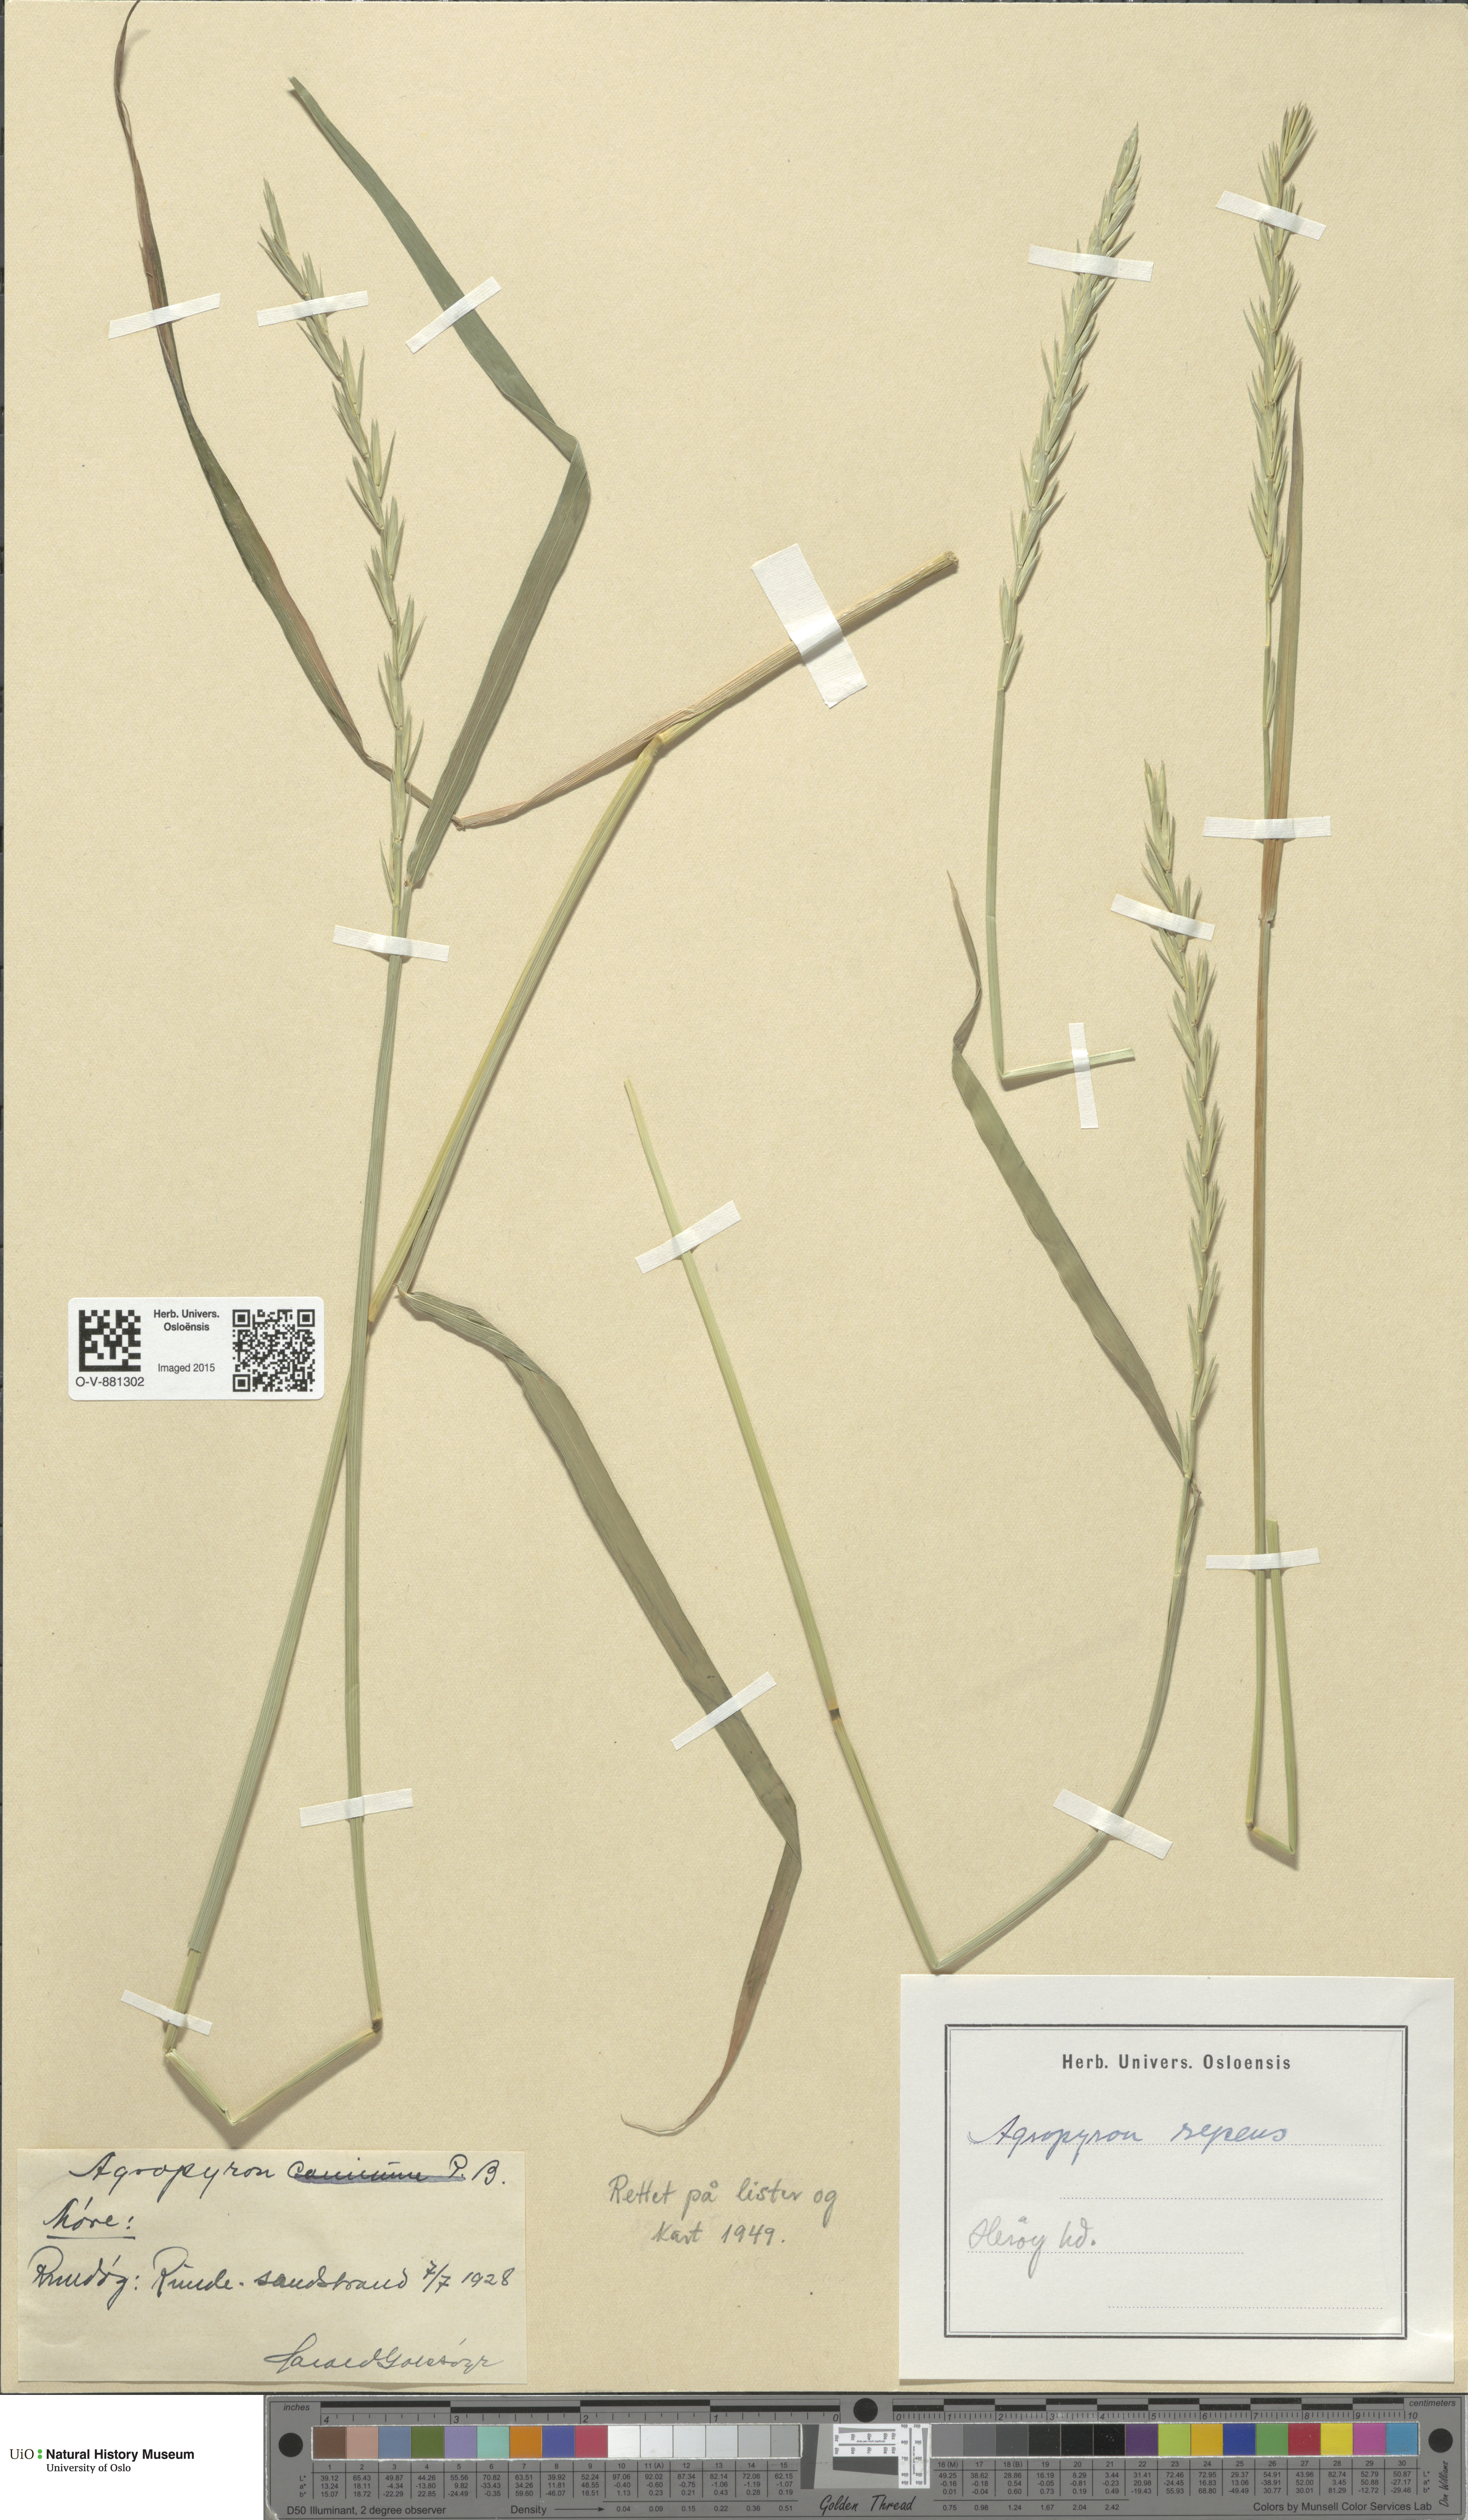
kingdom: Plantae
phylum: Tracheophyta
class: Liliopsida
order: Poales
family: Poaceae
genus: Elymus
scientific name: Elymus repens
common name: Quackgrass
